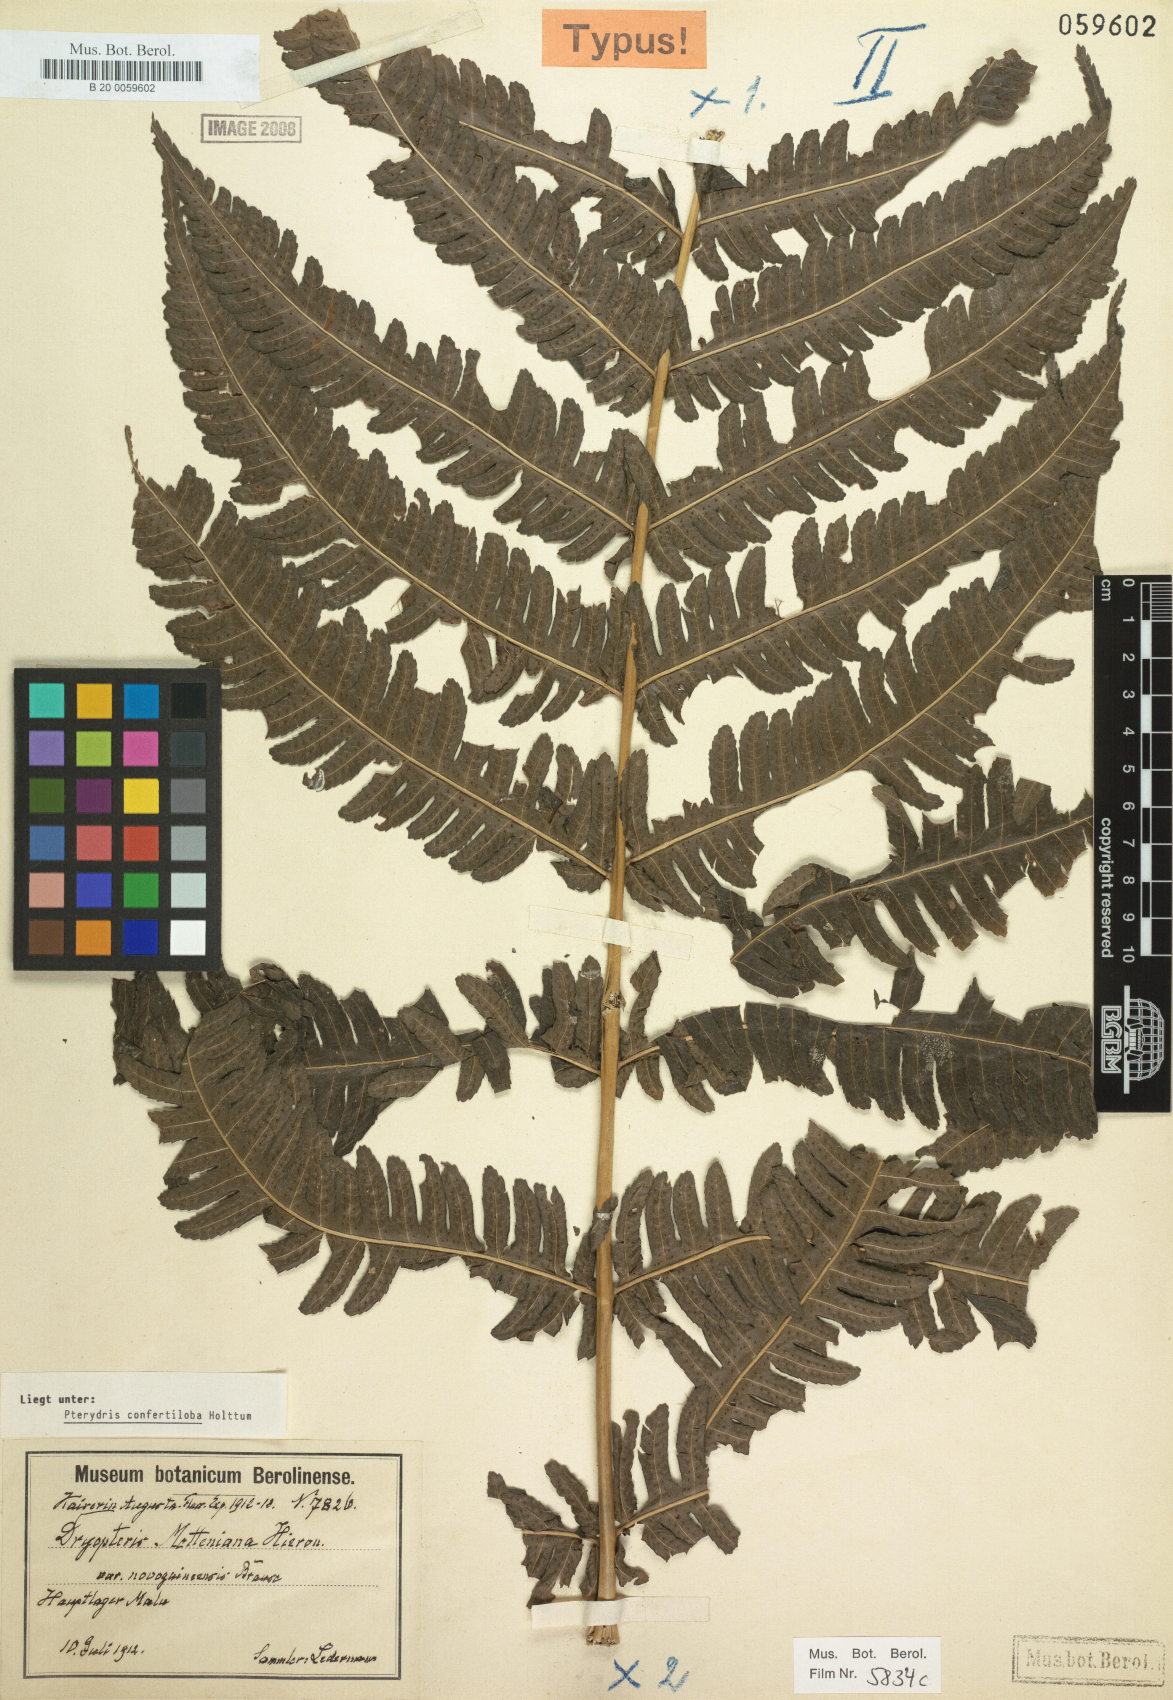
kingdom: Plantae
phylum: Tracheophyta
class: Polypodiopsida
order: Polypodiales
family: Tectariaceae
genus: Pteridrys
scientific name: Pteridrys confertiloba
